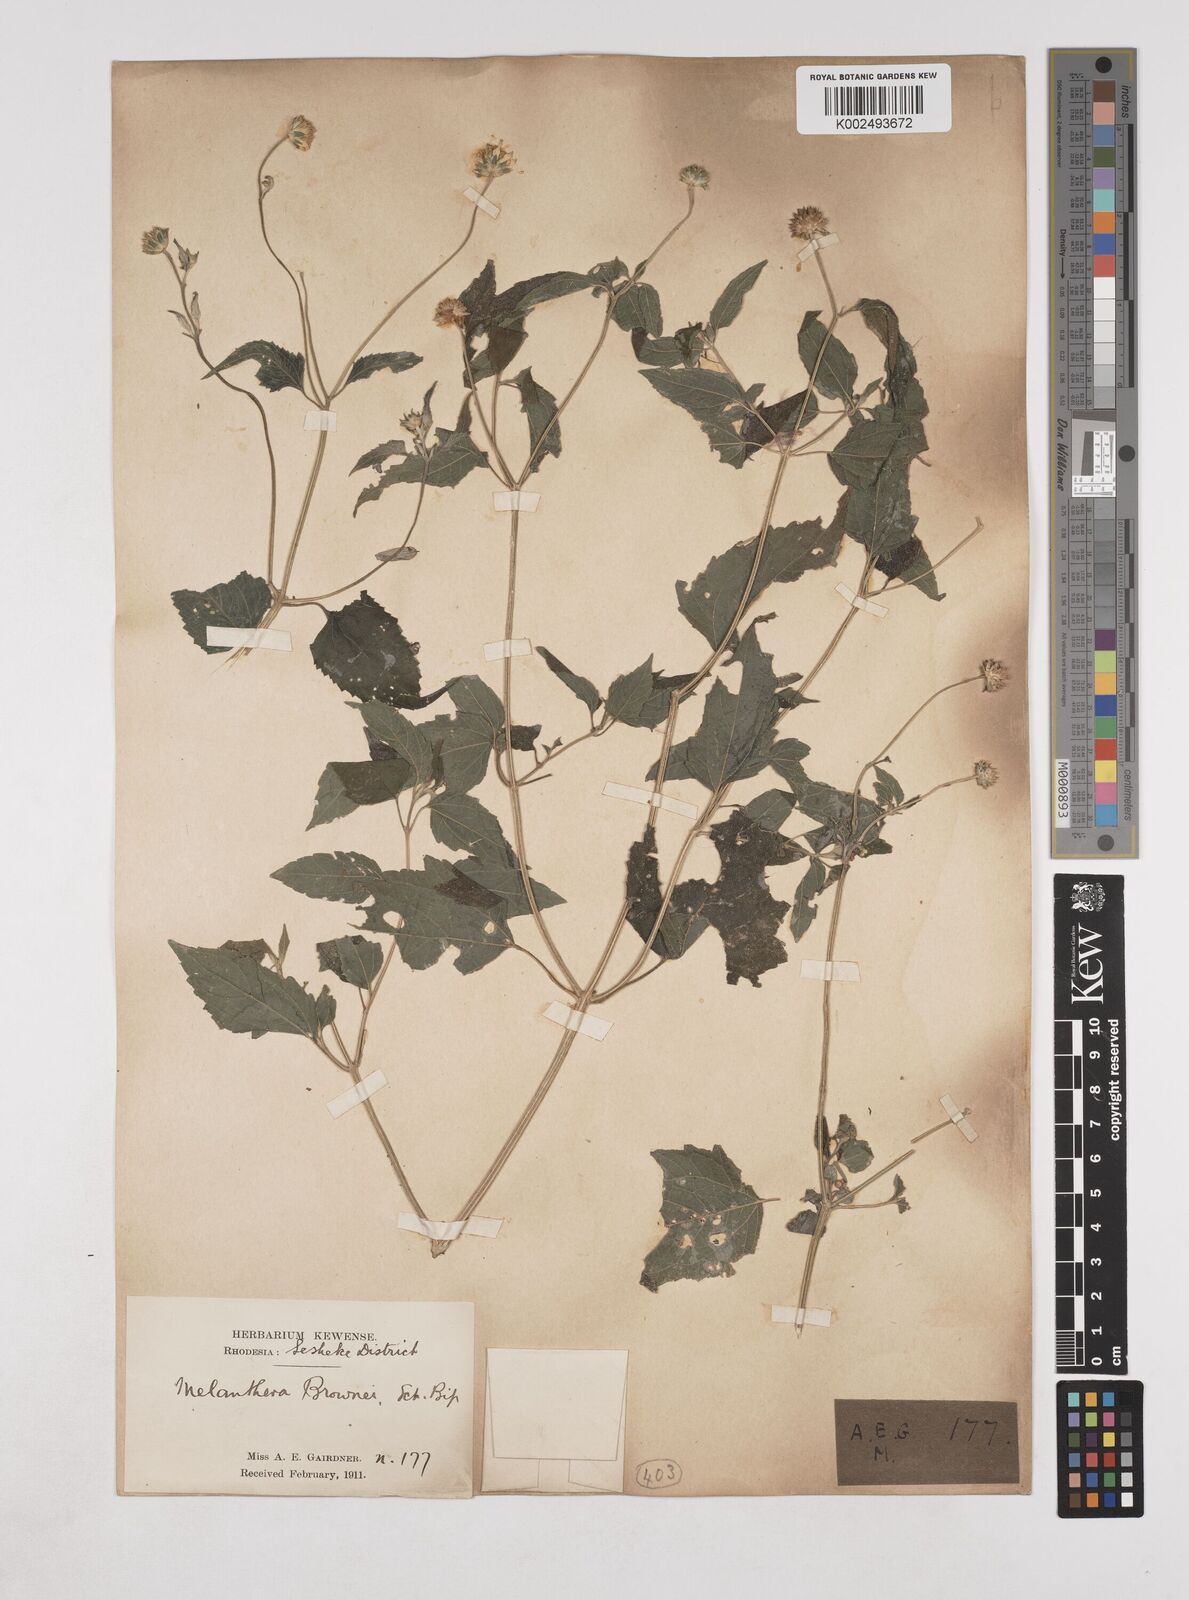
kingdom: Plantae
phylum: Tracheophyta
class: Magnoliopsida
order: Asterales
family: Asteraceae
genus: Lipotriche
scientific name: Lipotriche marlothiana
